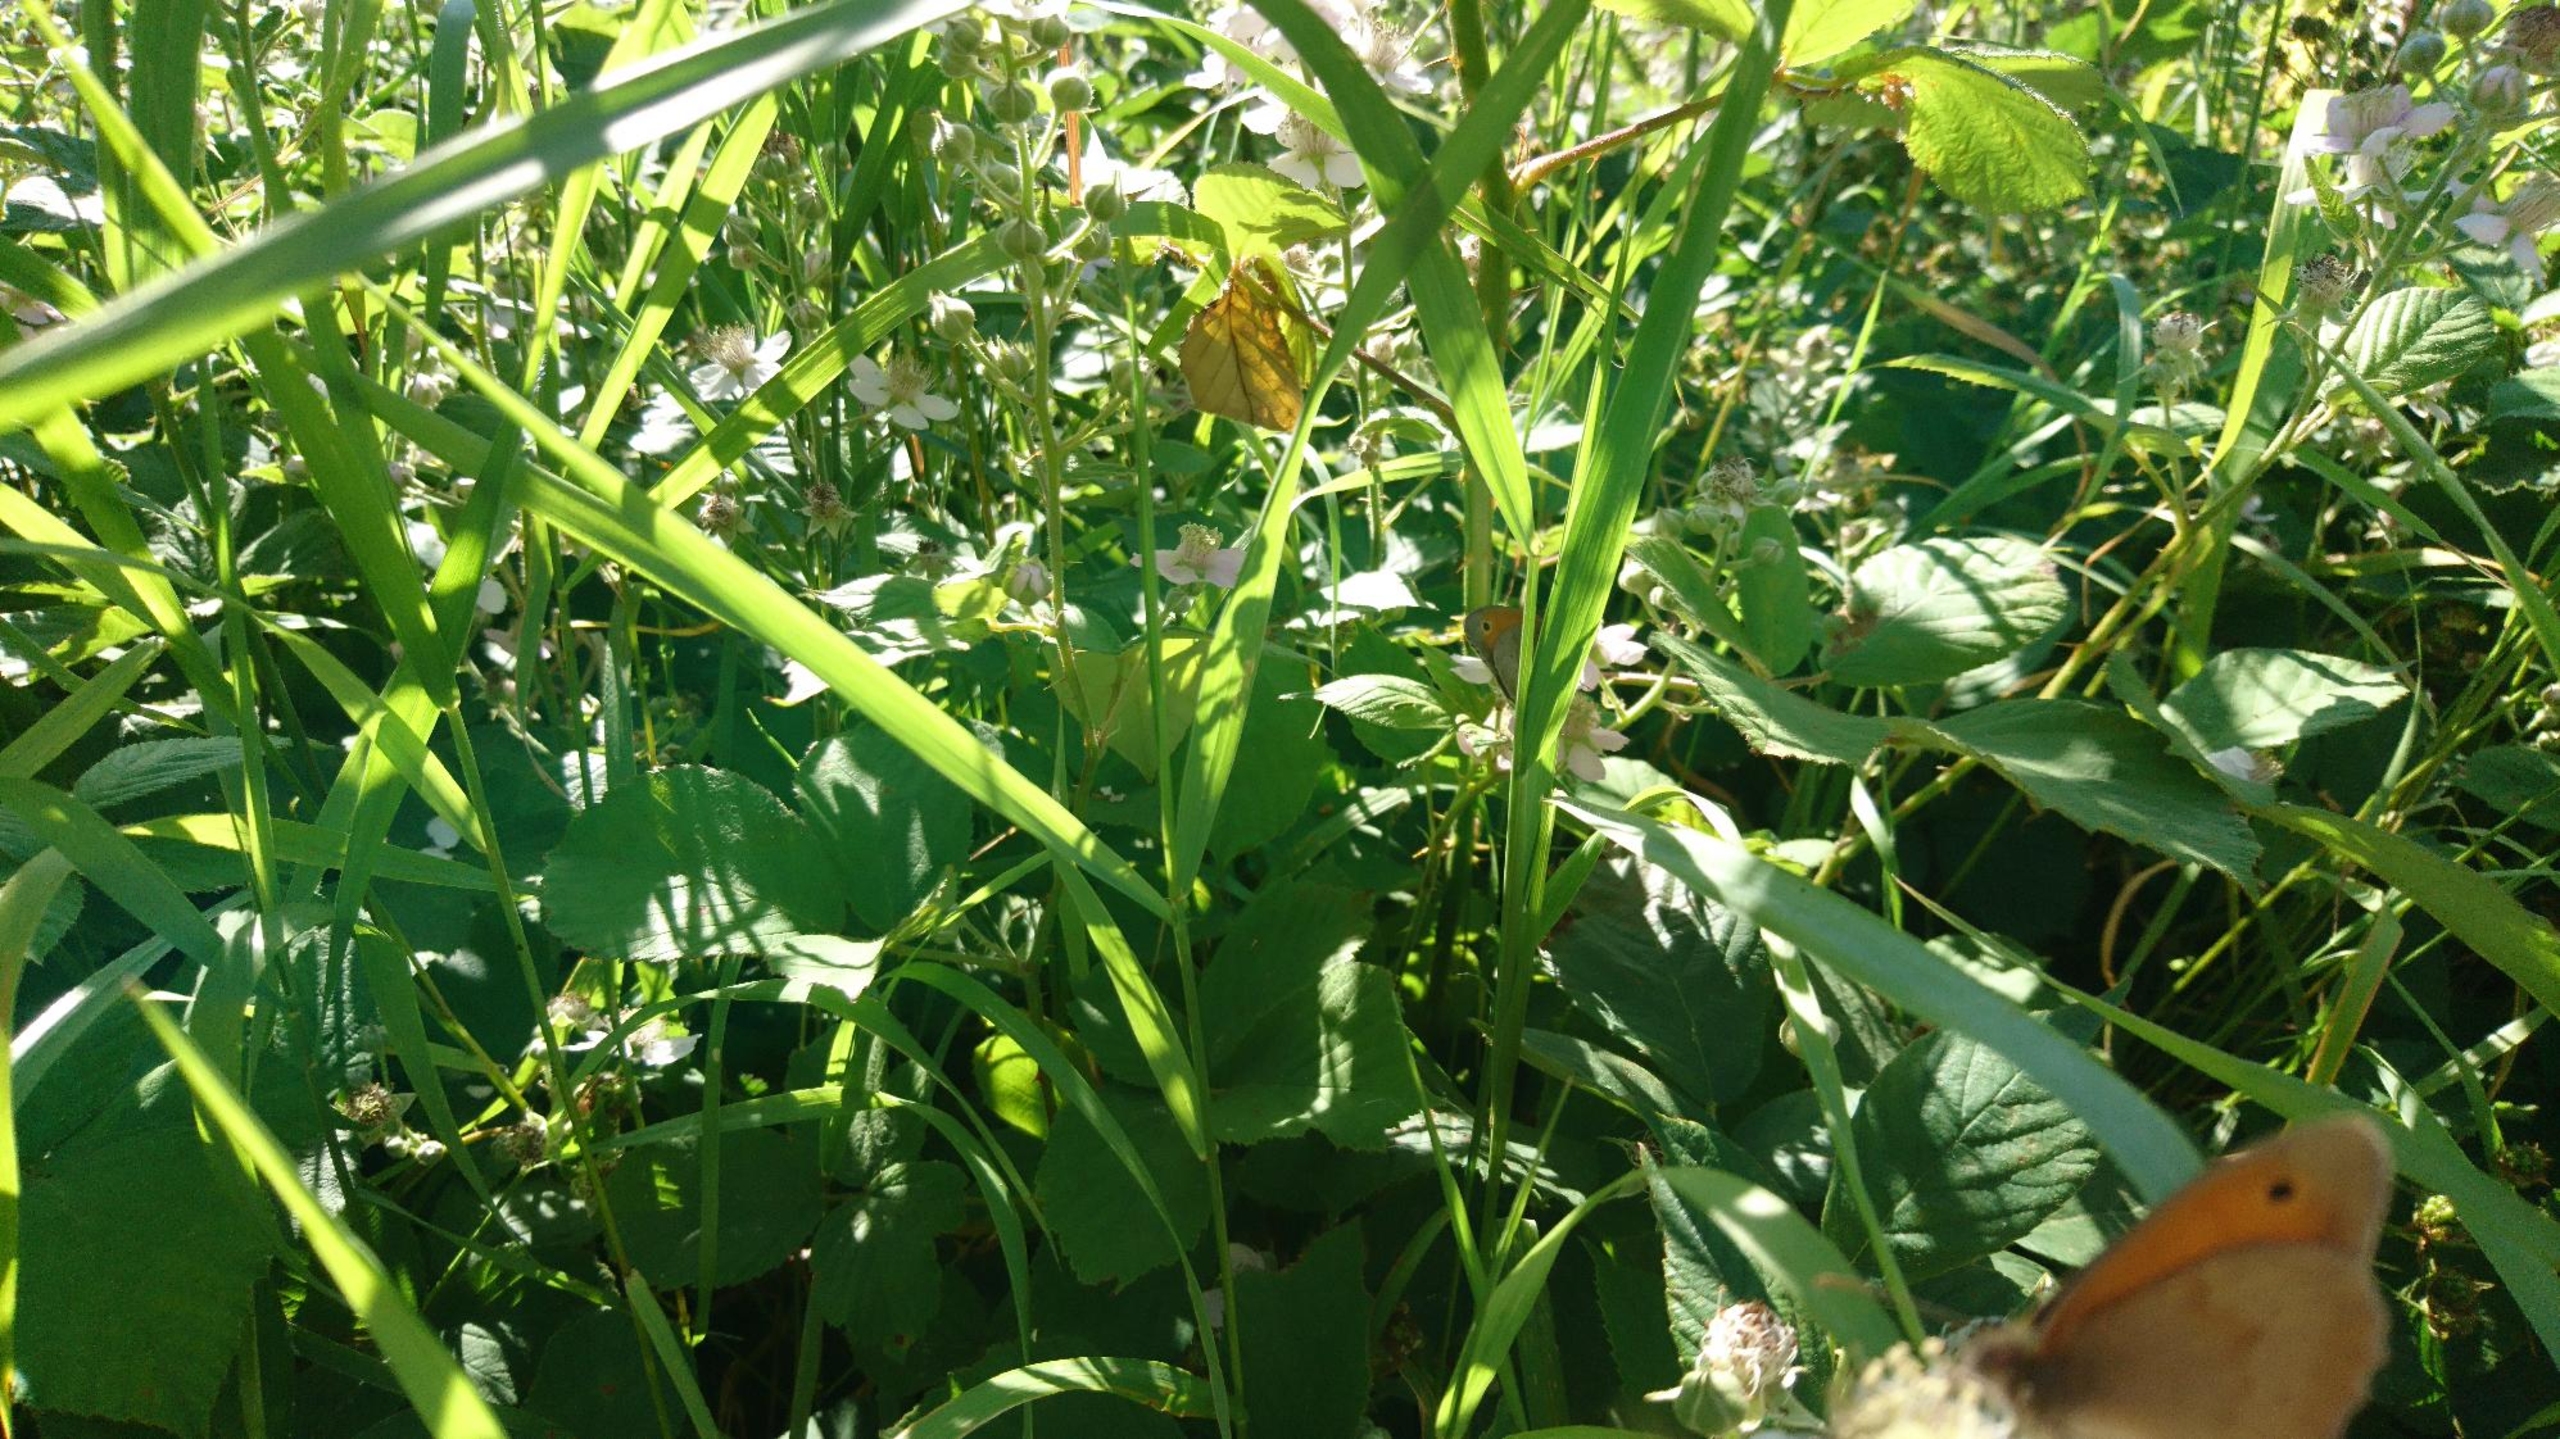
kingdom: Animalia
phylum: Arthropoda
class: Insecta
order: Lepidoptera
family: Nymphalidae
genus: Maniola
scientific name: Maniola jurtina
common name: Græsrandøje
